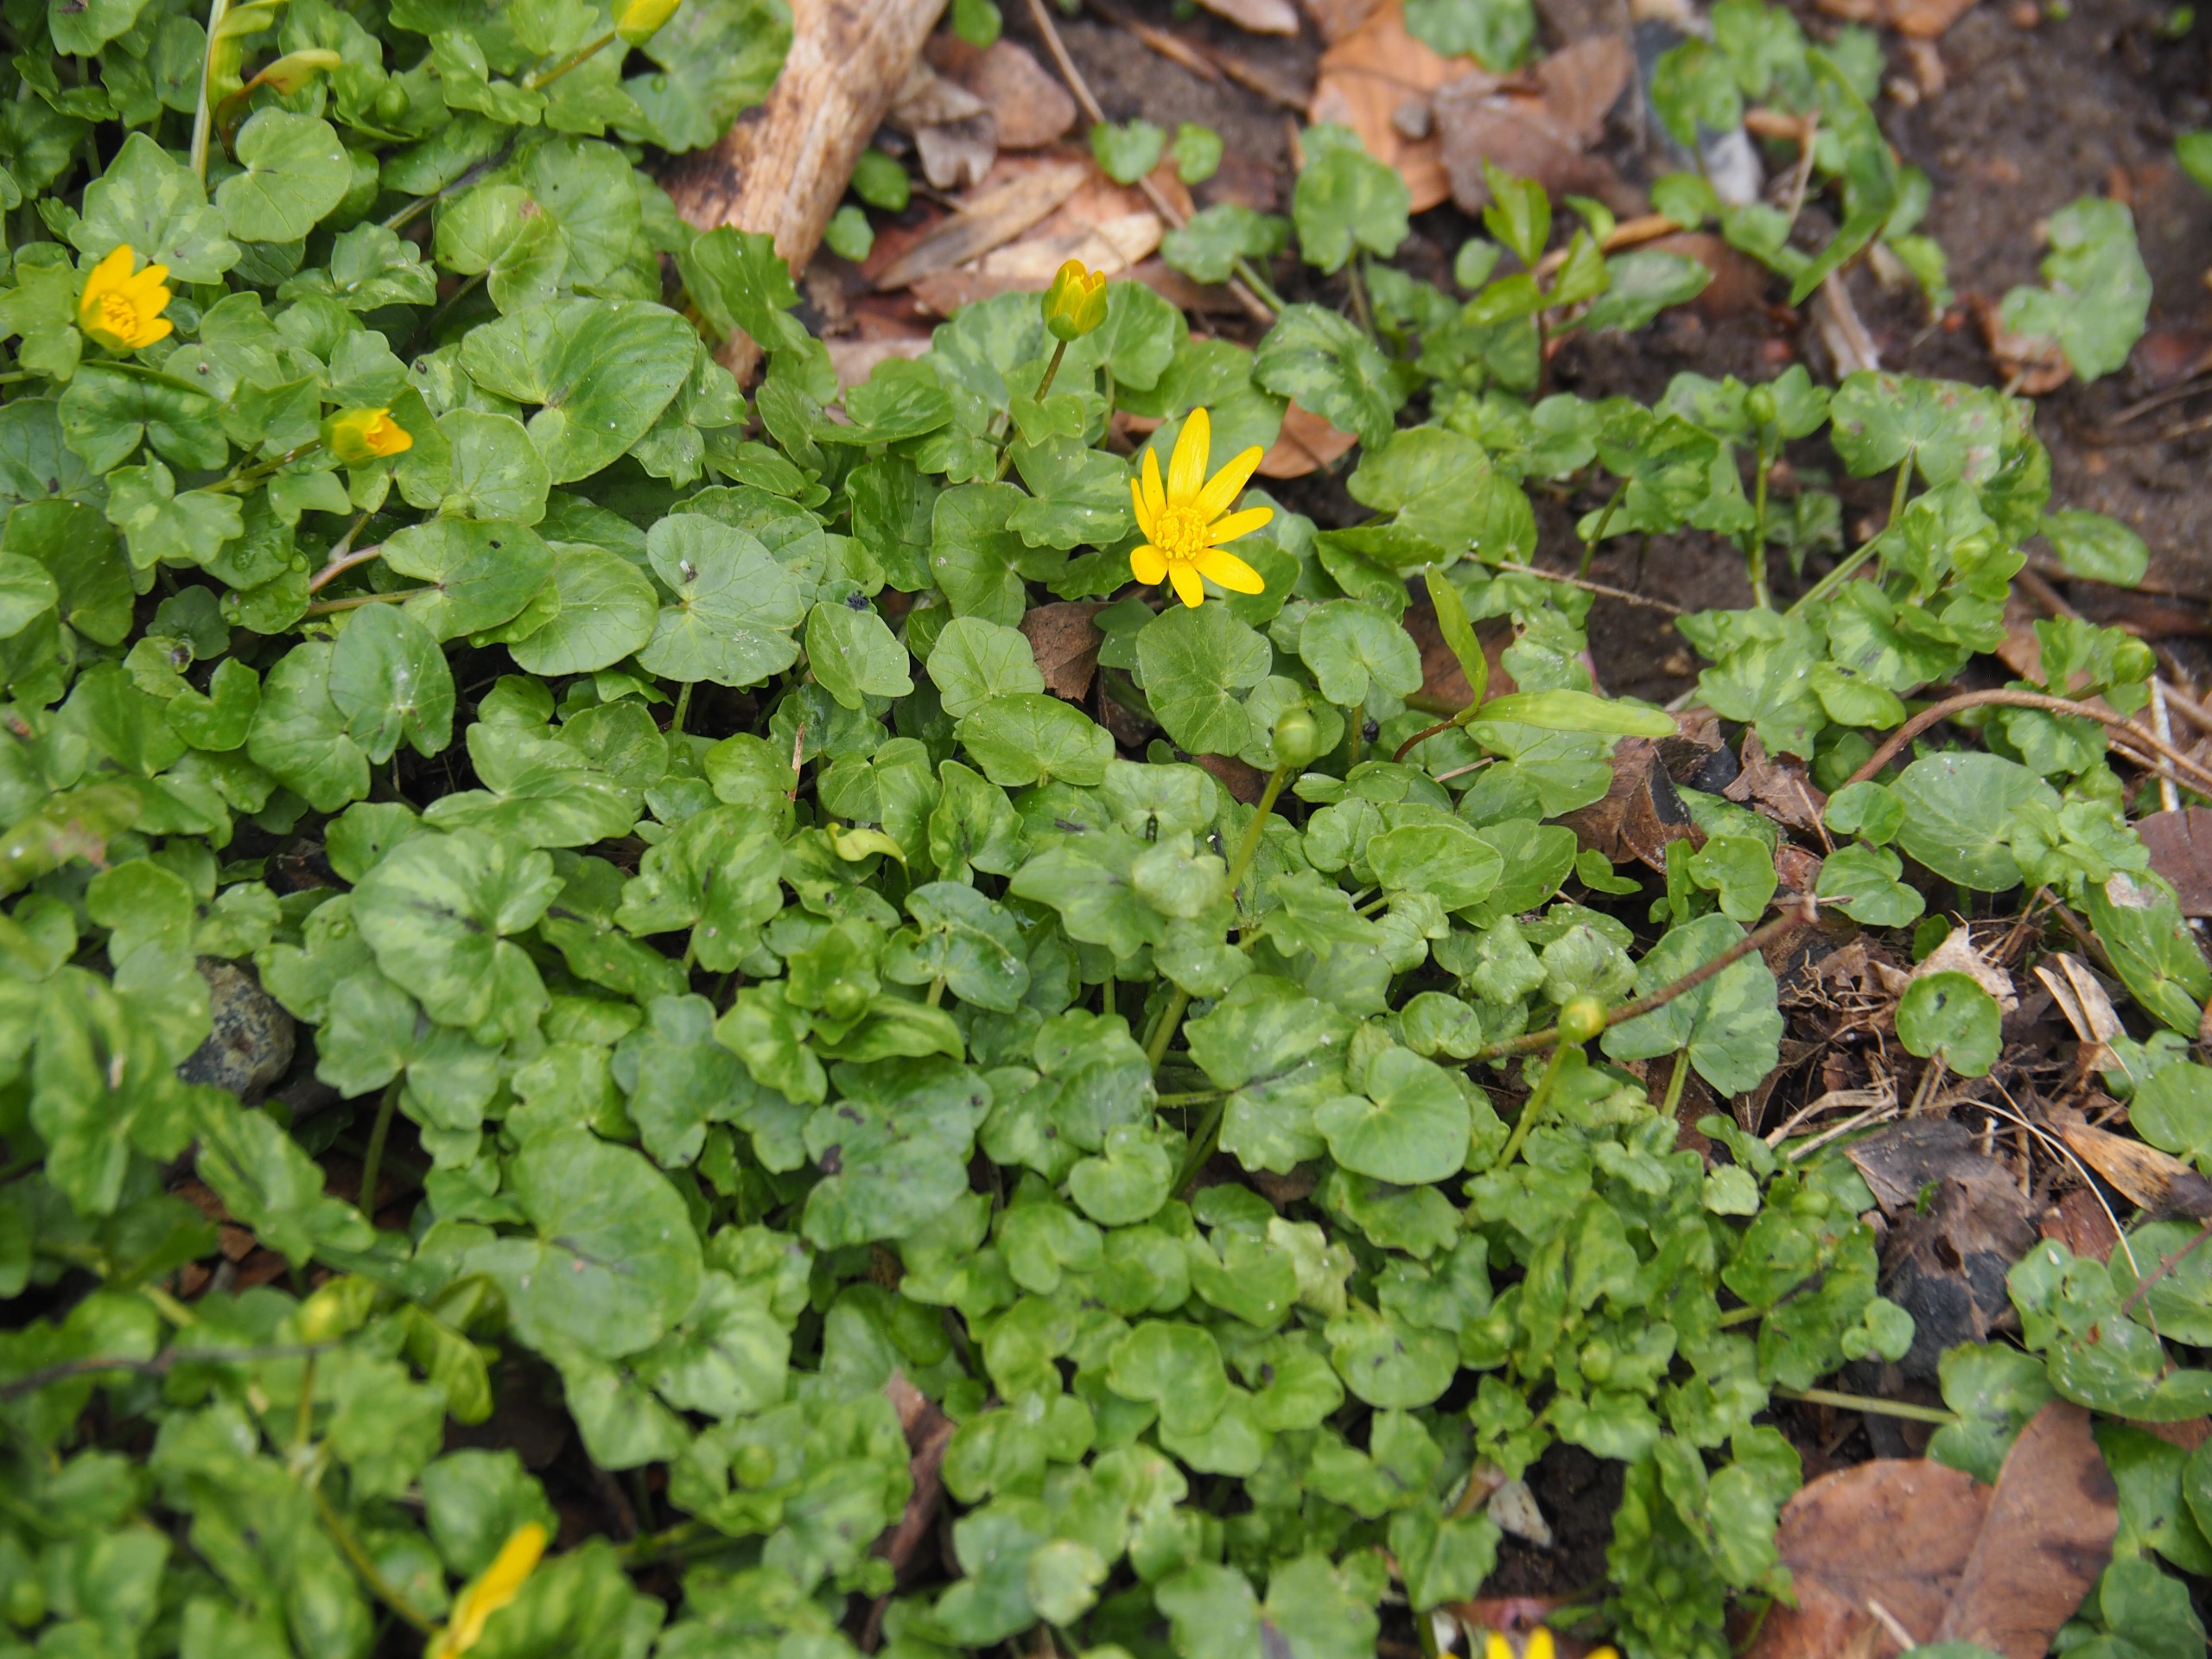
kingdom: Plantae
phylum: Tracheophyta
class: Magnoliopsida
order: Ranunculales
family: Ranunculaceae
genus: Ficaria
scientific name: Ficaria verna
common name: Vorterod
